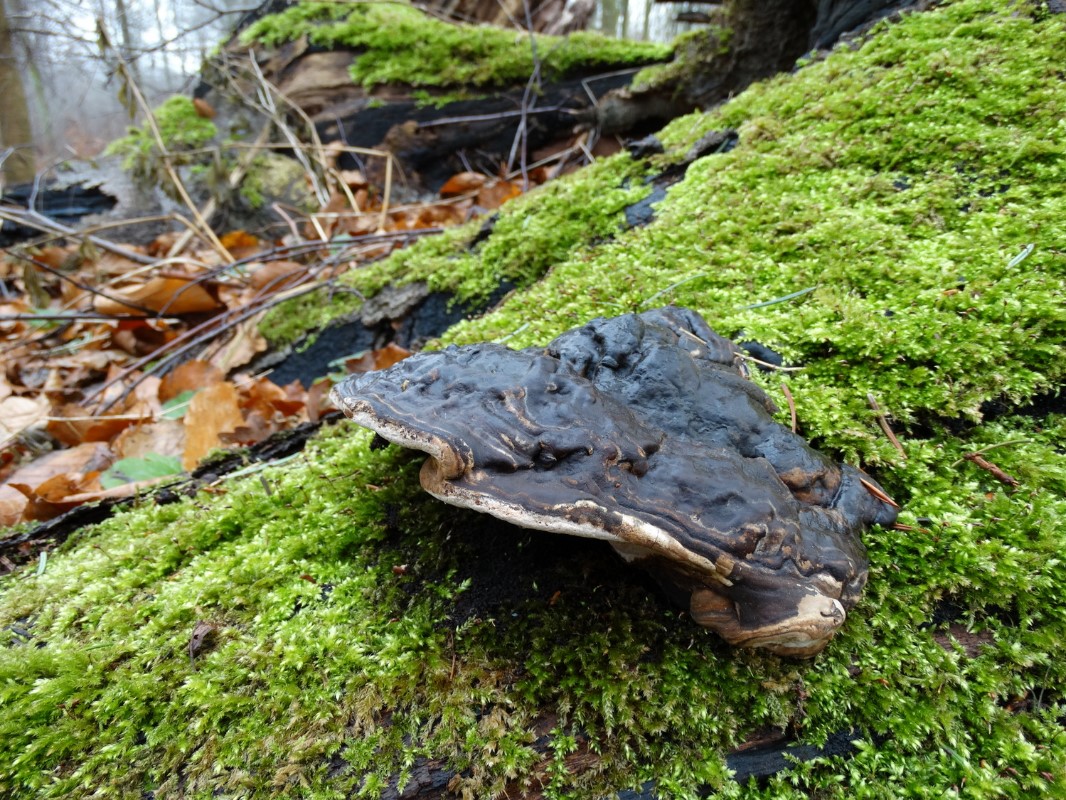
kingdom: Fungi
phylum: Basidiomycota
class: Agaricomycetes
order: Polyporales
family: Polyporaceae
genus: Ganoderma
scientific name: Ganoderma applanatum
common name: flad lakporesvamp
